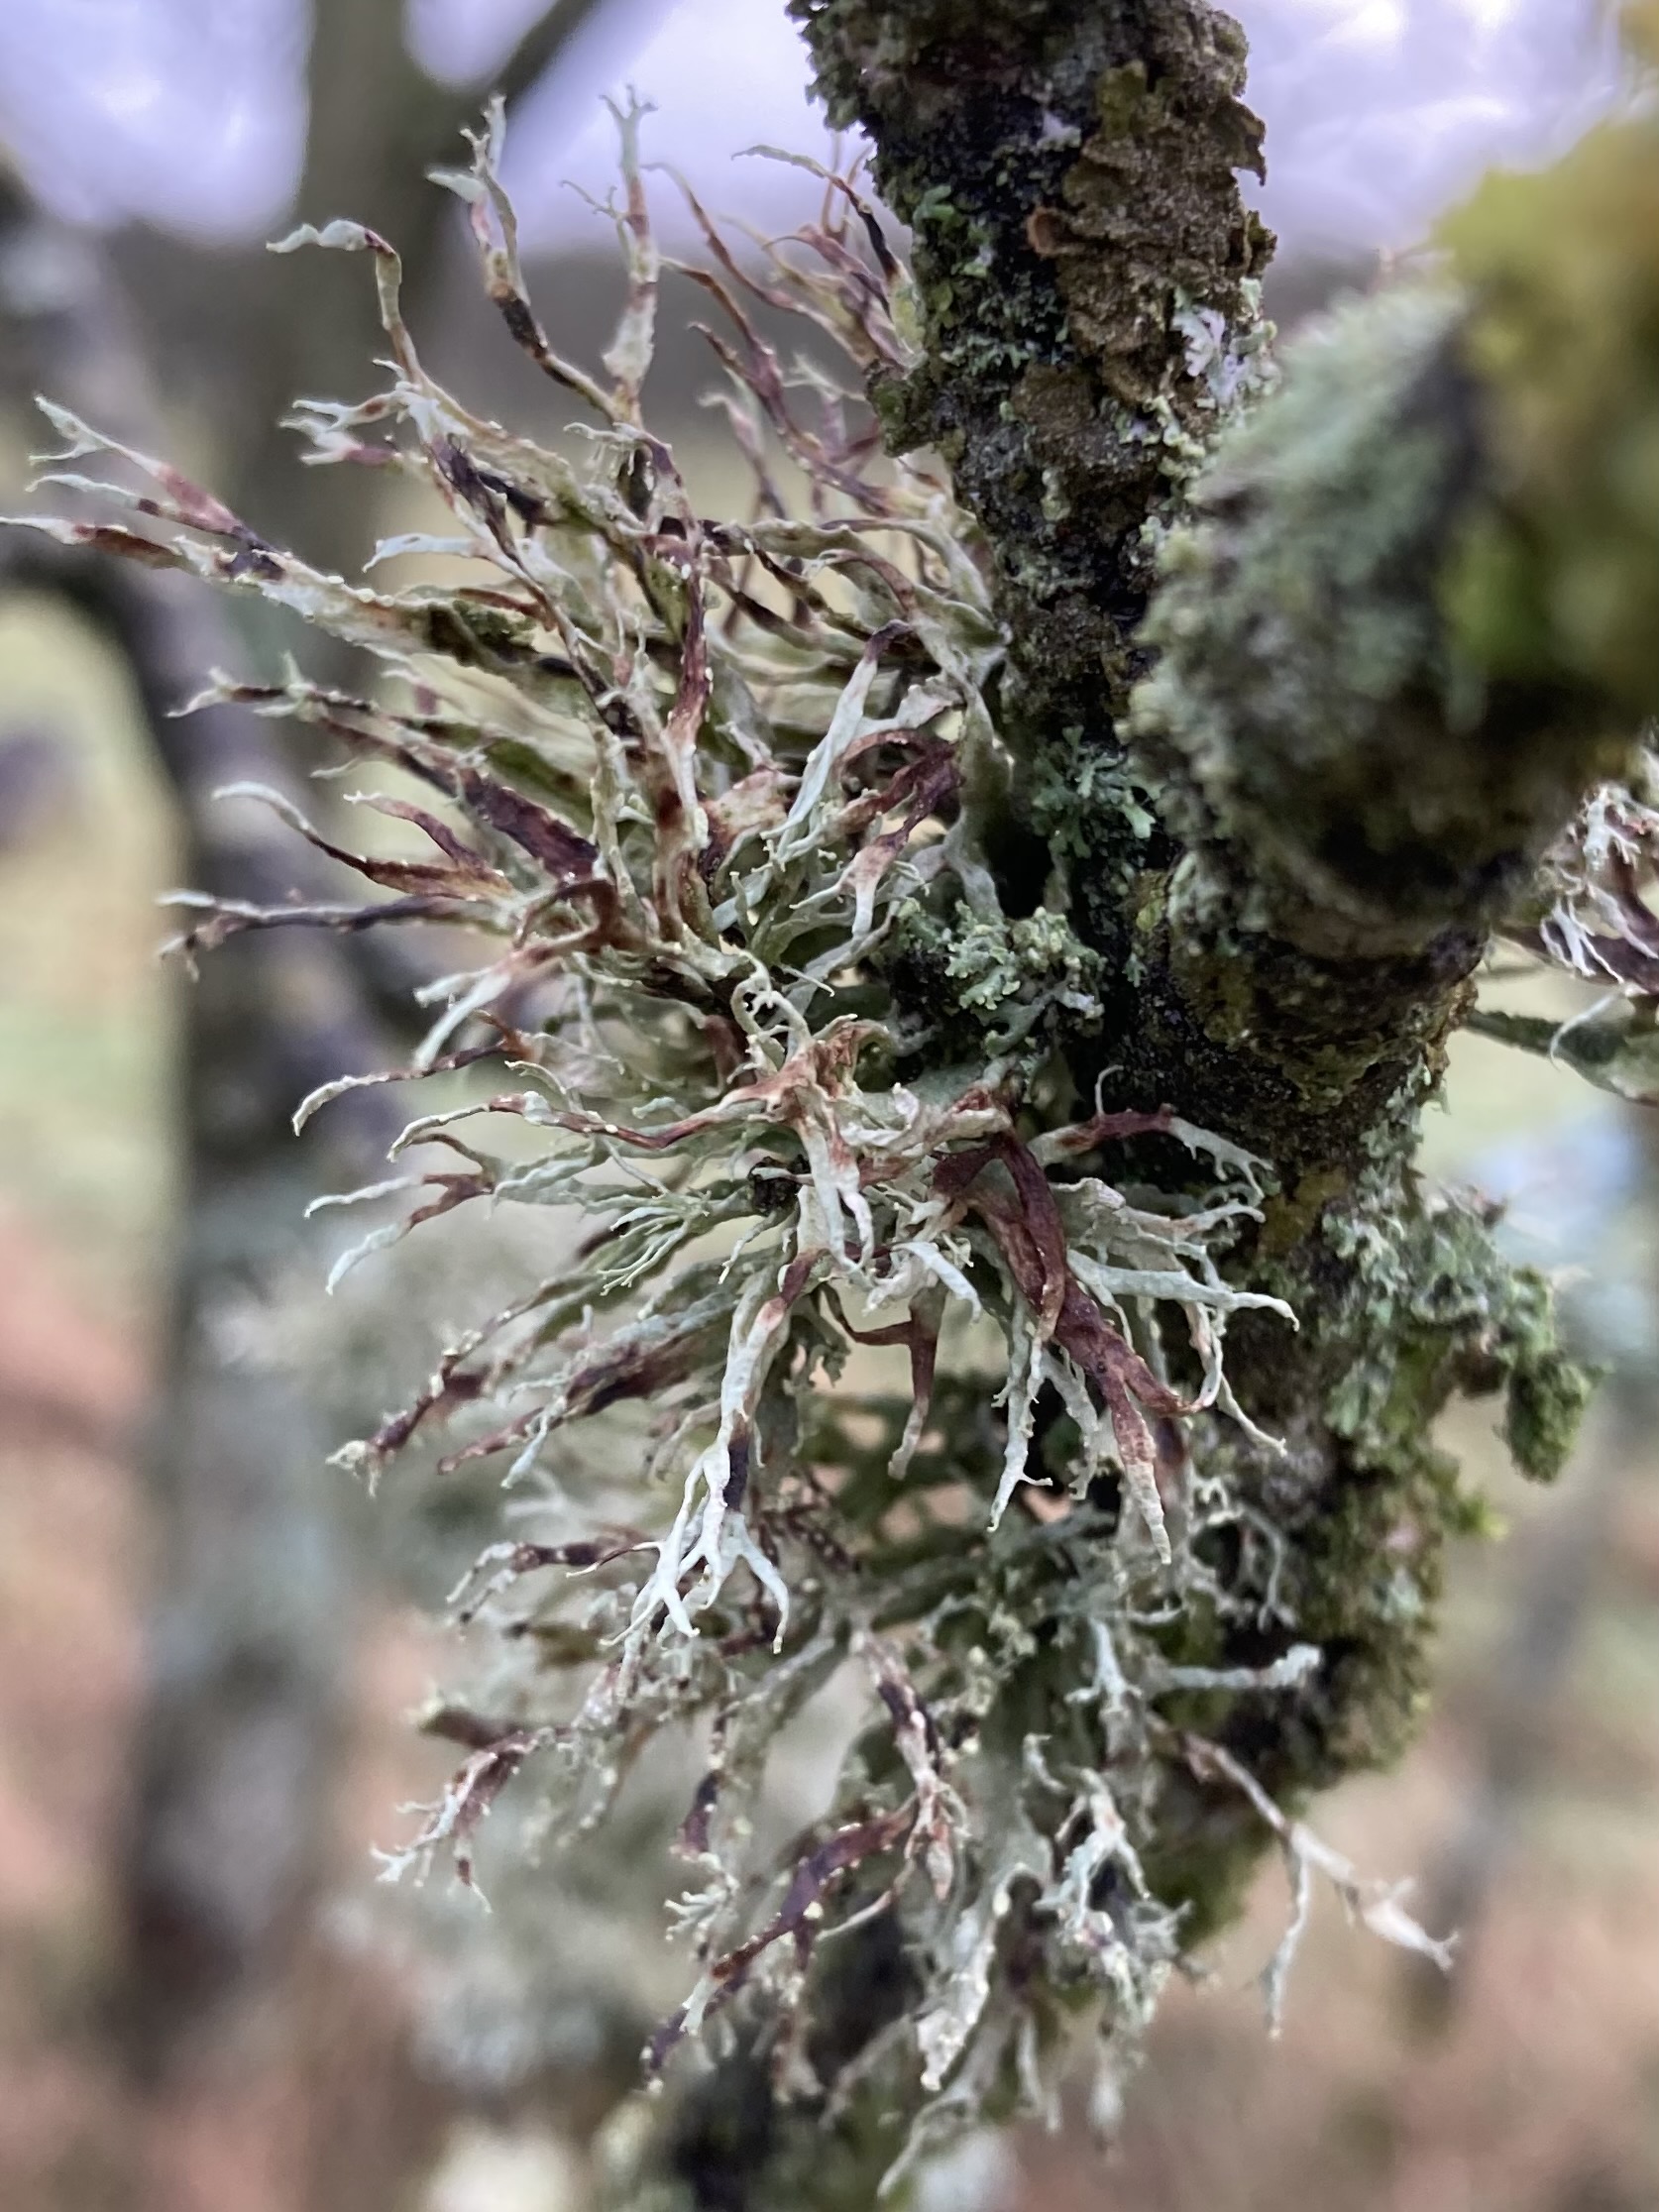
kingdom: Fungi
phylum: Ascomycota
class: Lecanoromycetes
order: Lecanorales
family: Ramalinaceae
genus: Ramalina
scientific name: Ramalina farinacea
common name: melet grenlav
